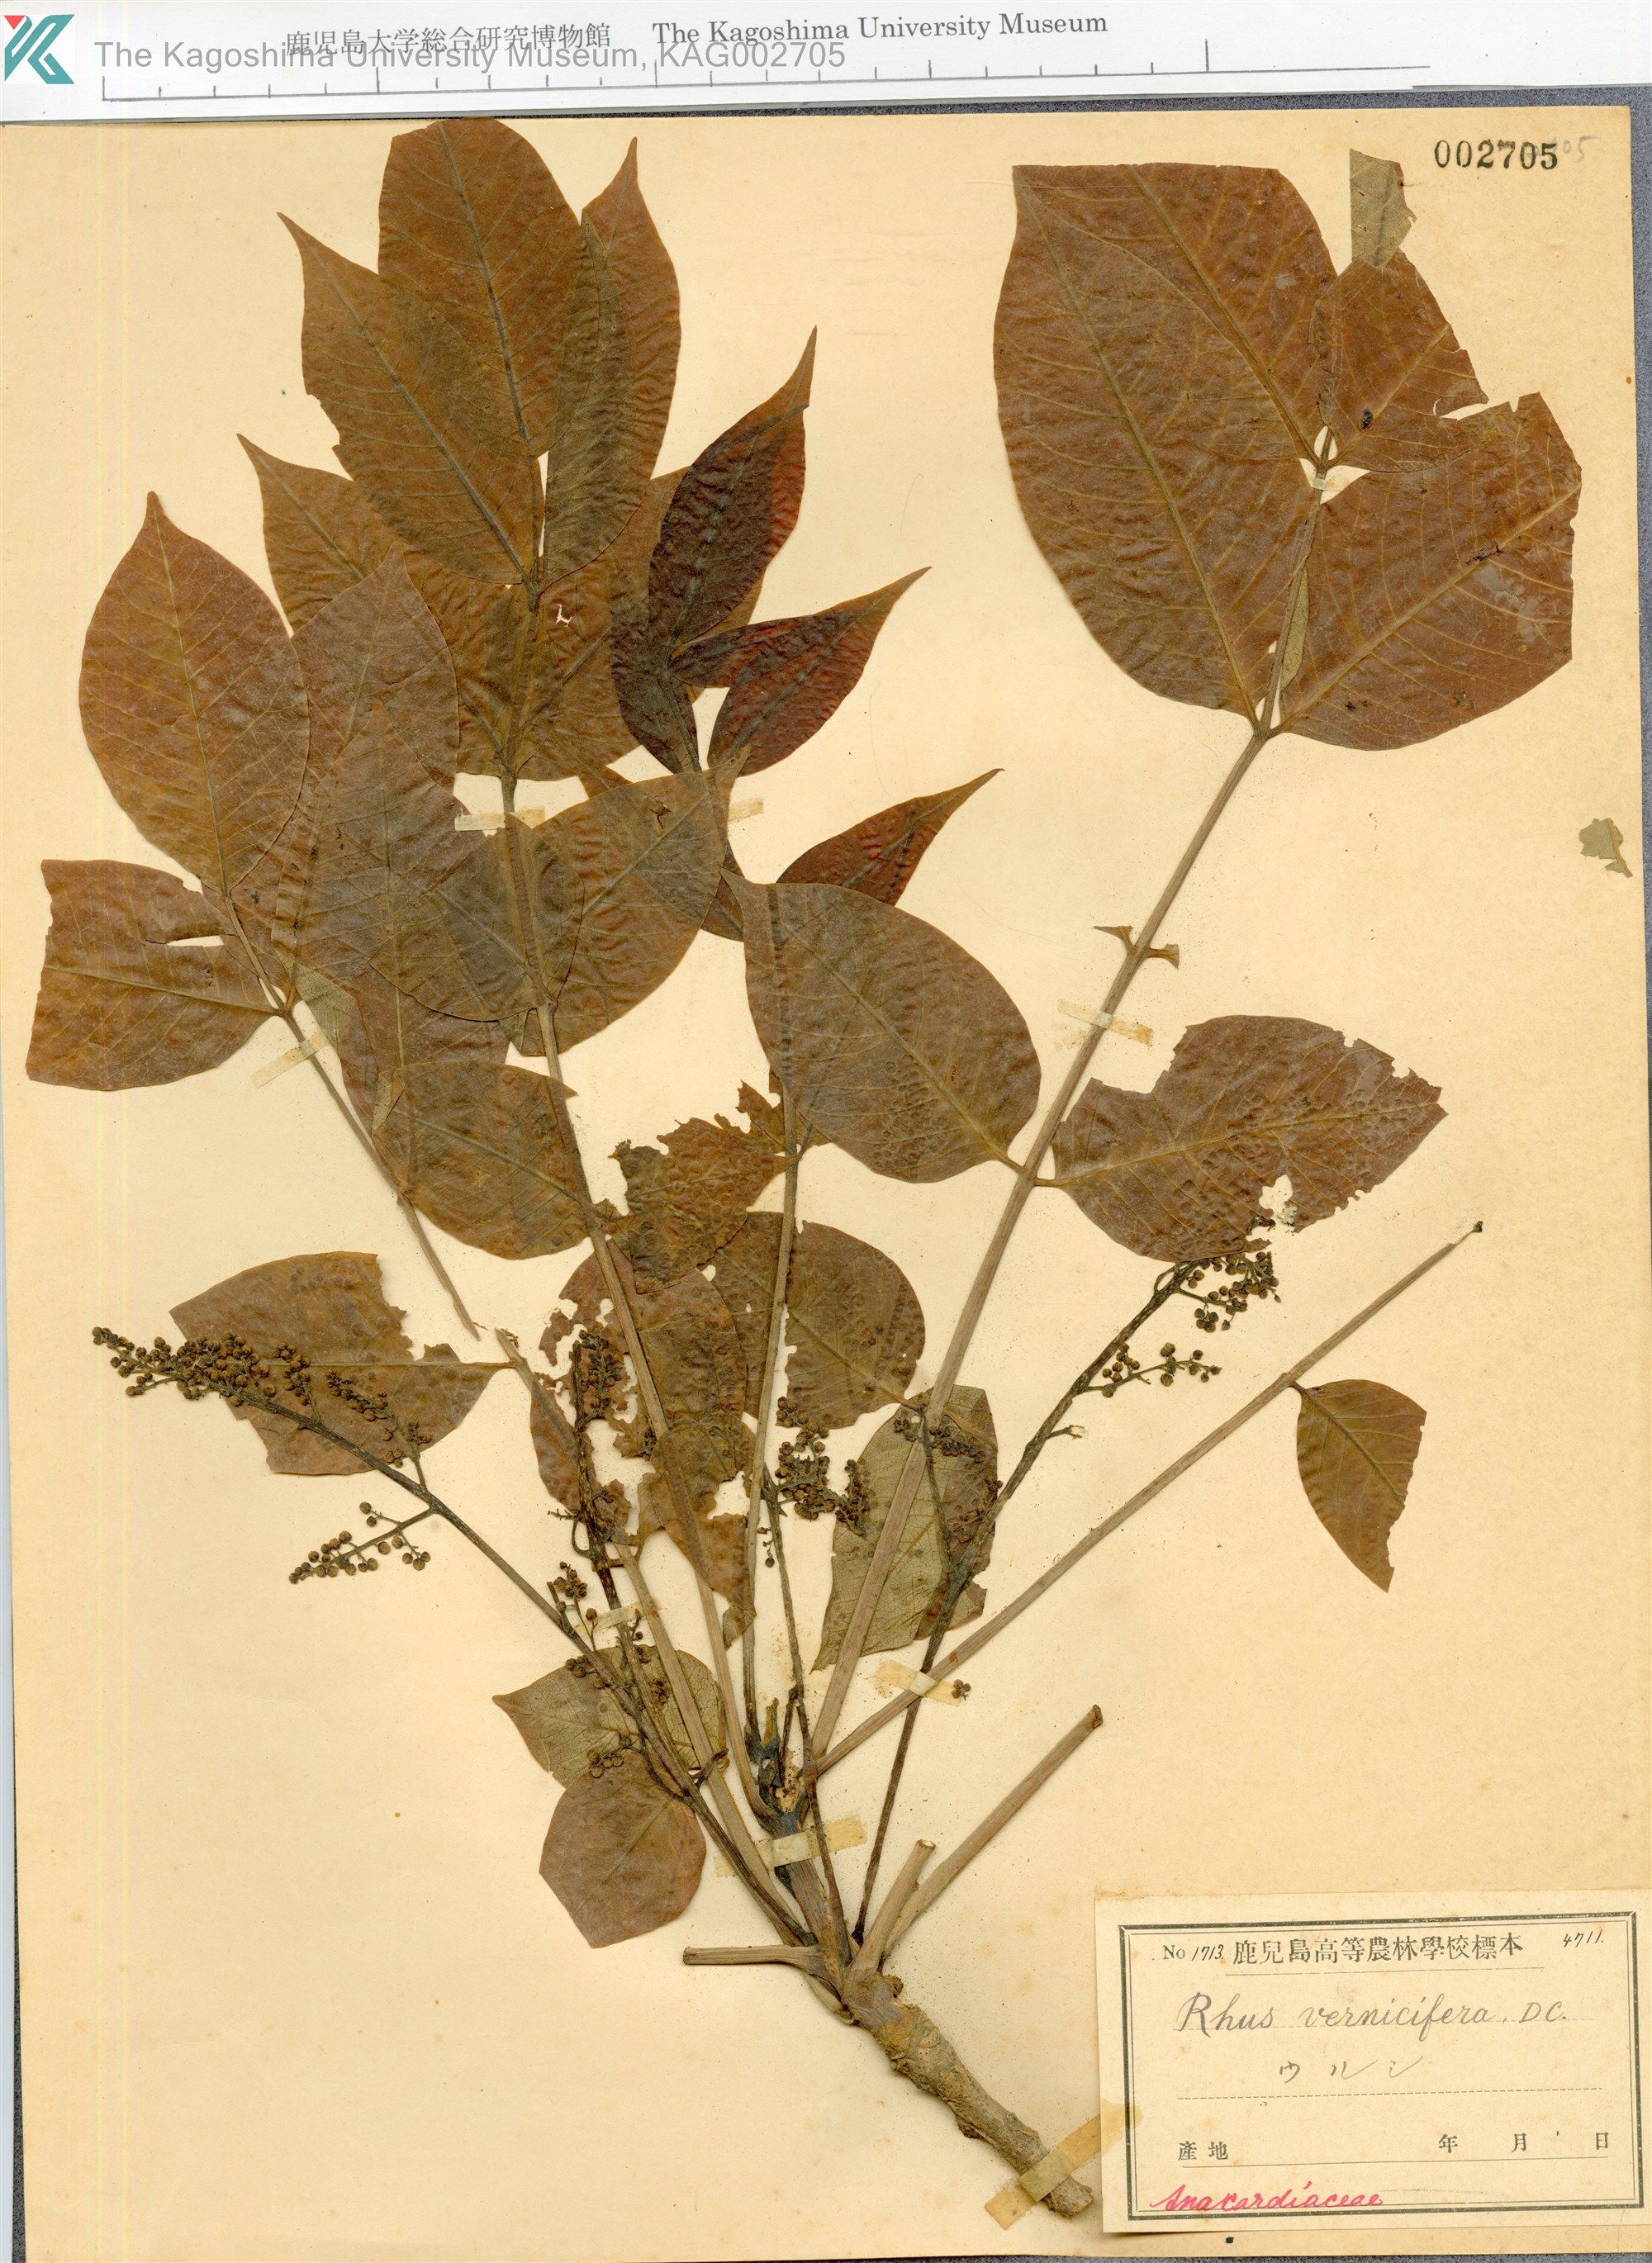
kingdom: Plantae
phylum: Tracheophyta
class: Magnoliopsida
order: Sapindales
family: Anacardiaceae
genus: Toxicodendron
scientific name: Toxicodendron vernicifluum
